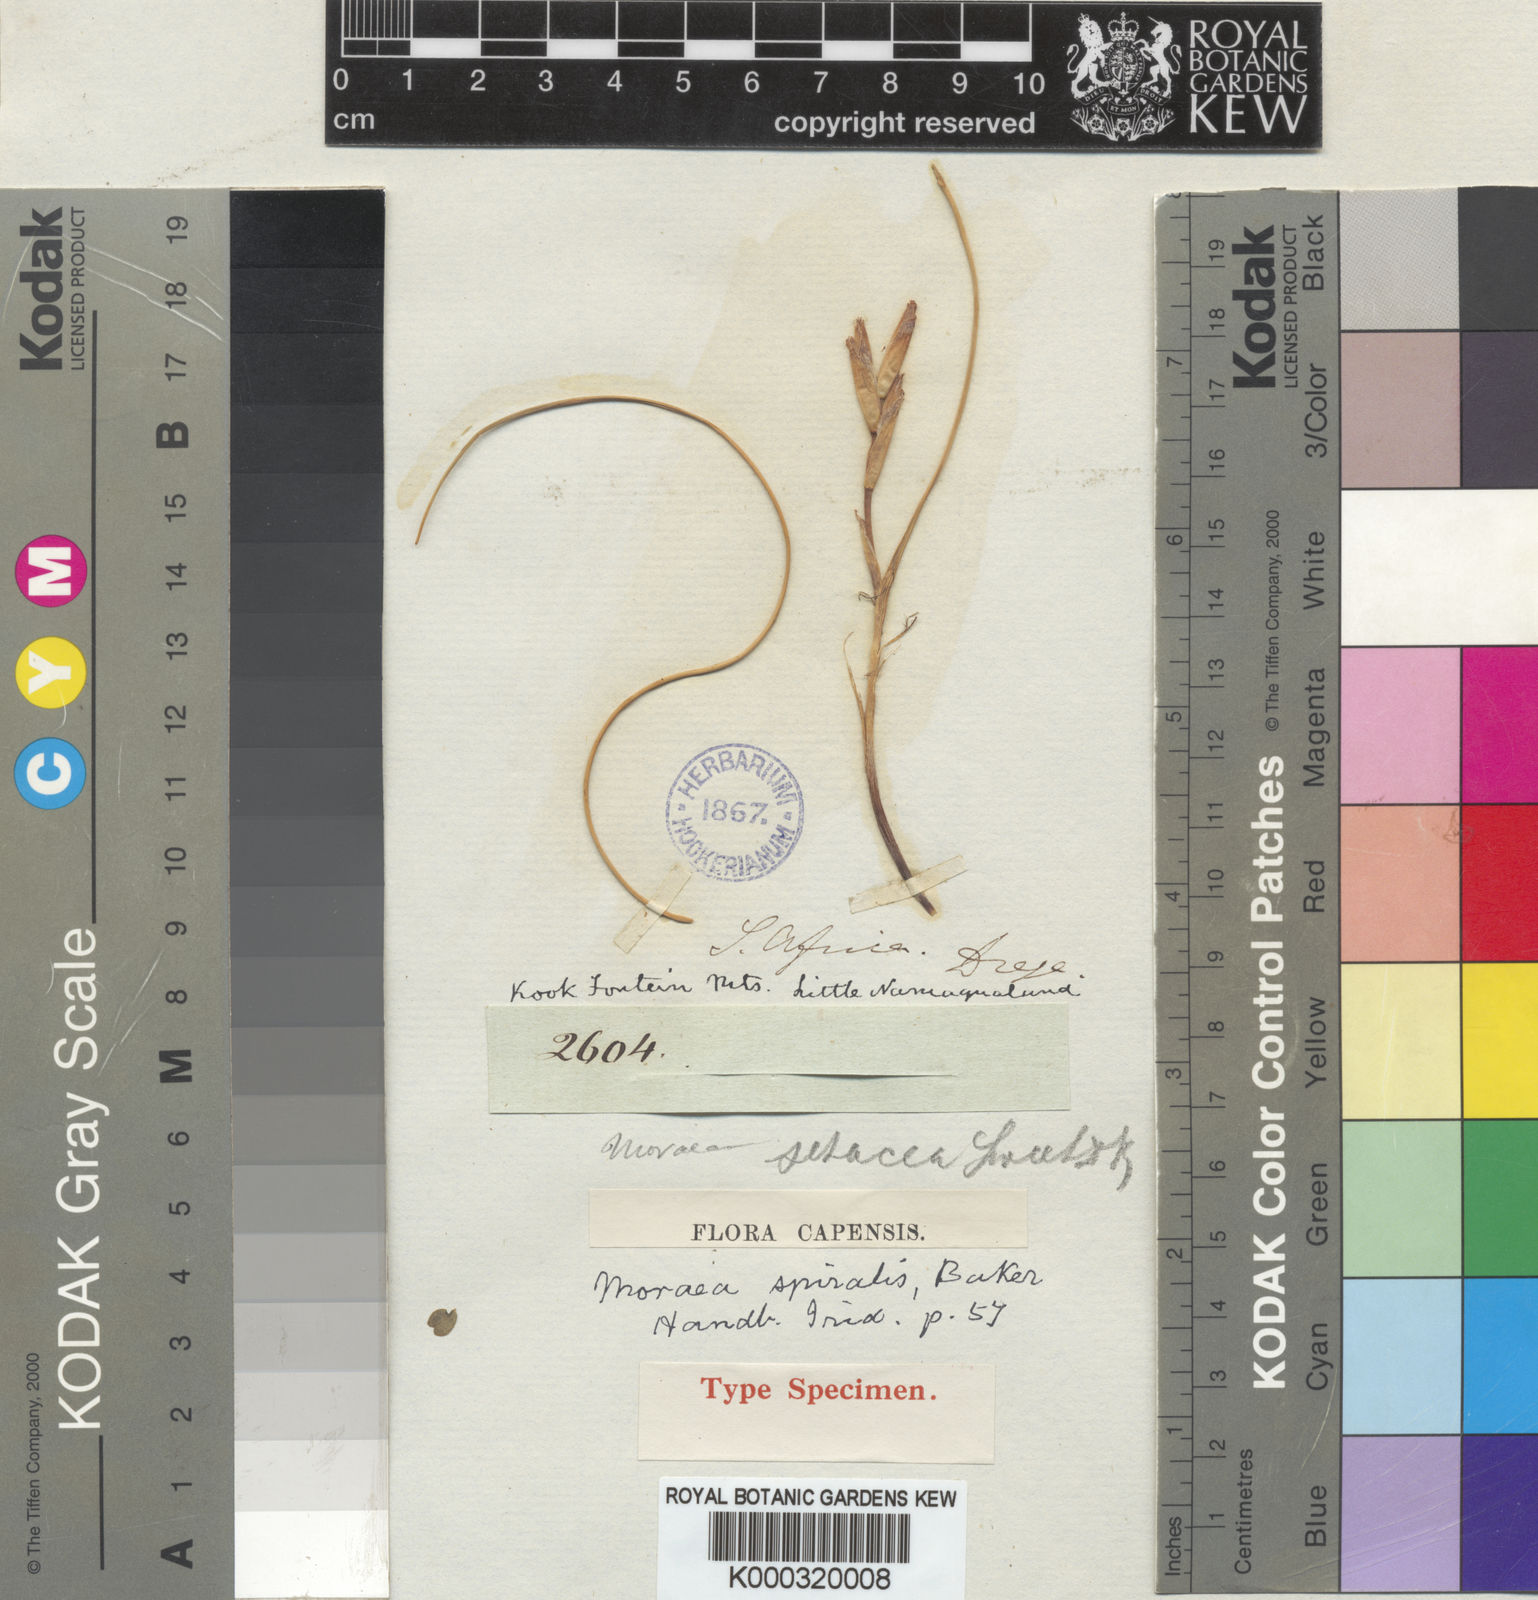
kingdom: Plantae
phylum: Tracheophyta
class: Liliopsida
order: Asparagales
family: Iridaceae
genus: Moraea
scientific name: Moraea herrei
